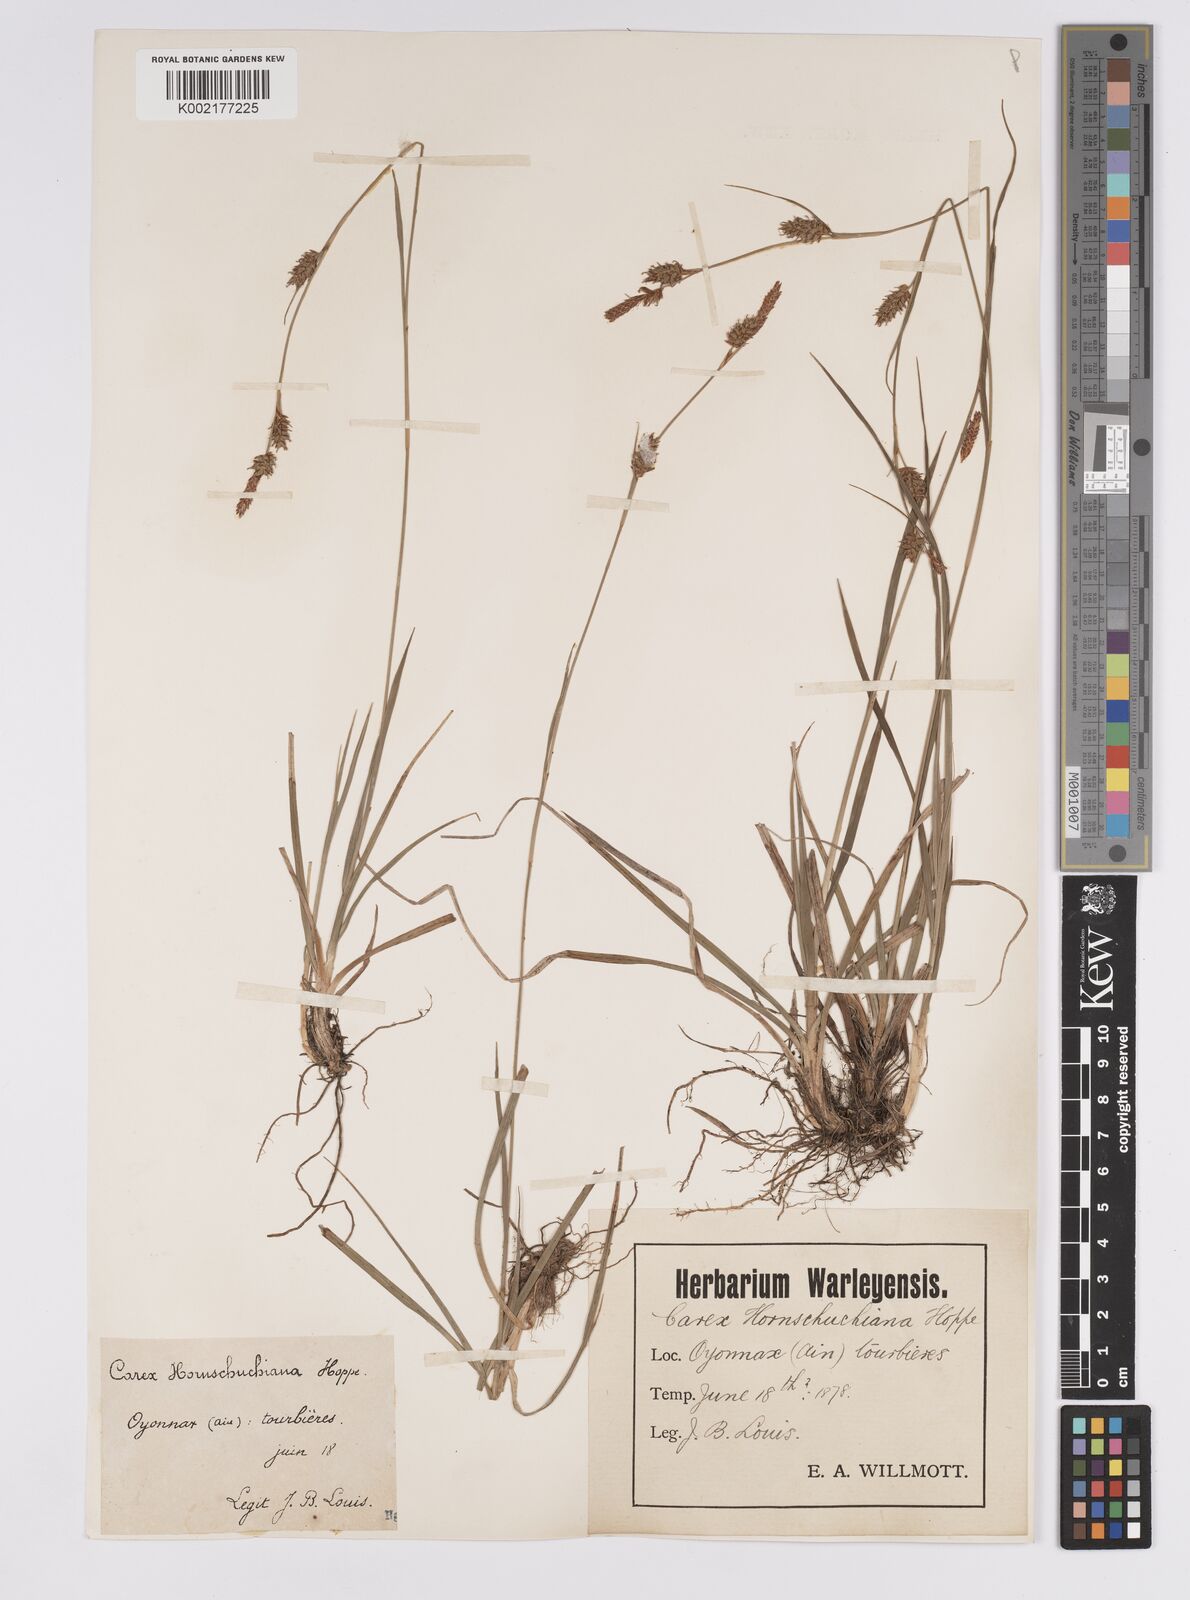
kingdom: Plantae
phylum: Tracheophyta
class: Liliopsida
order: Poales
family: Cyperaceae
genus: Carex
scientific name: Carex hostiana
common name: Tawny sedge
